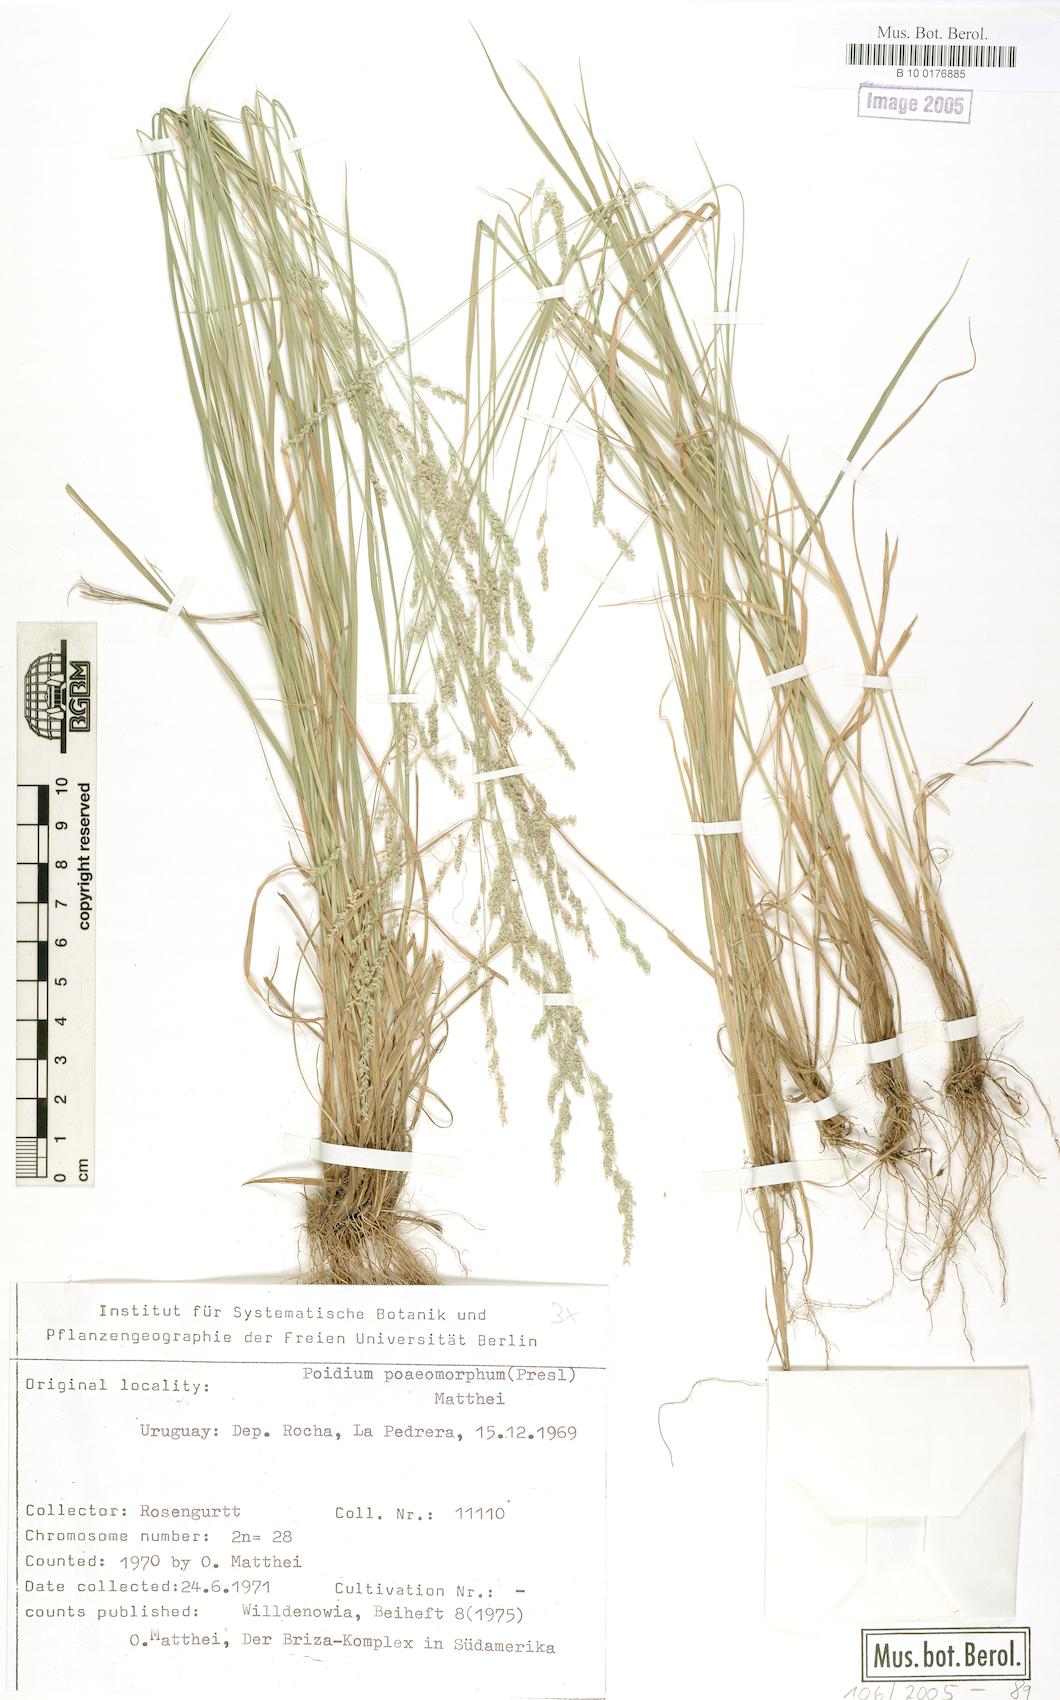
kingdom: Plantae
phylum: Tracheophyta
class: Liliopsida
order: Poales
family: Poaceae
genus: Chascolytrum
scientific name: Chascolytrum poomorphum
